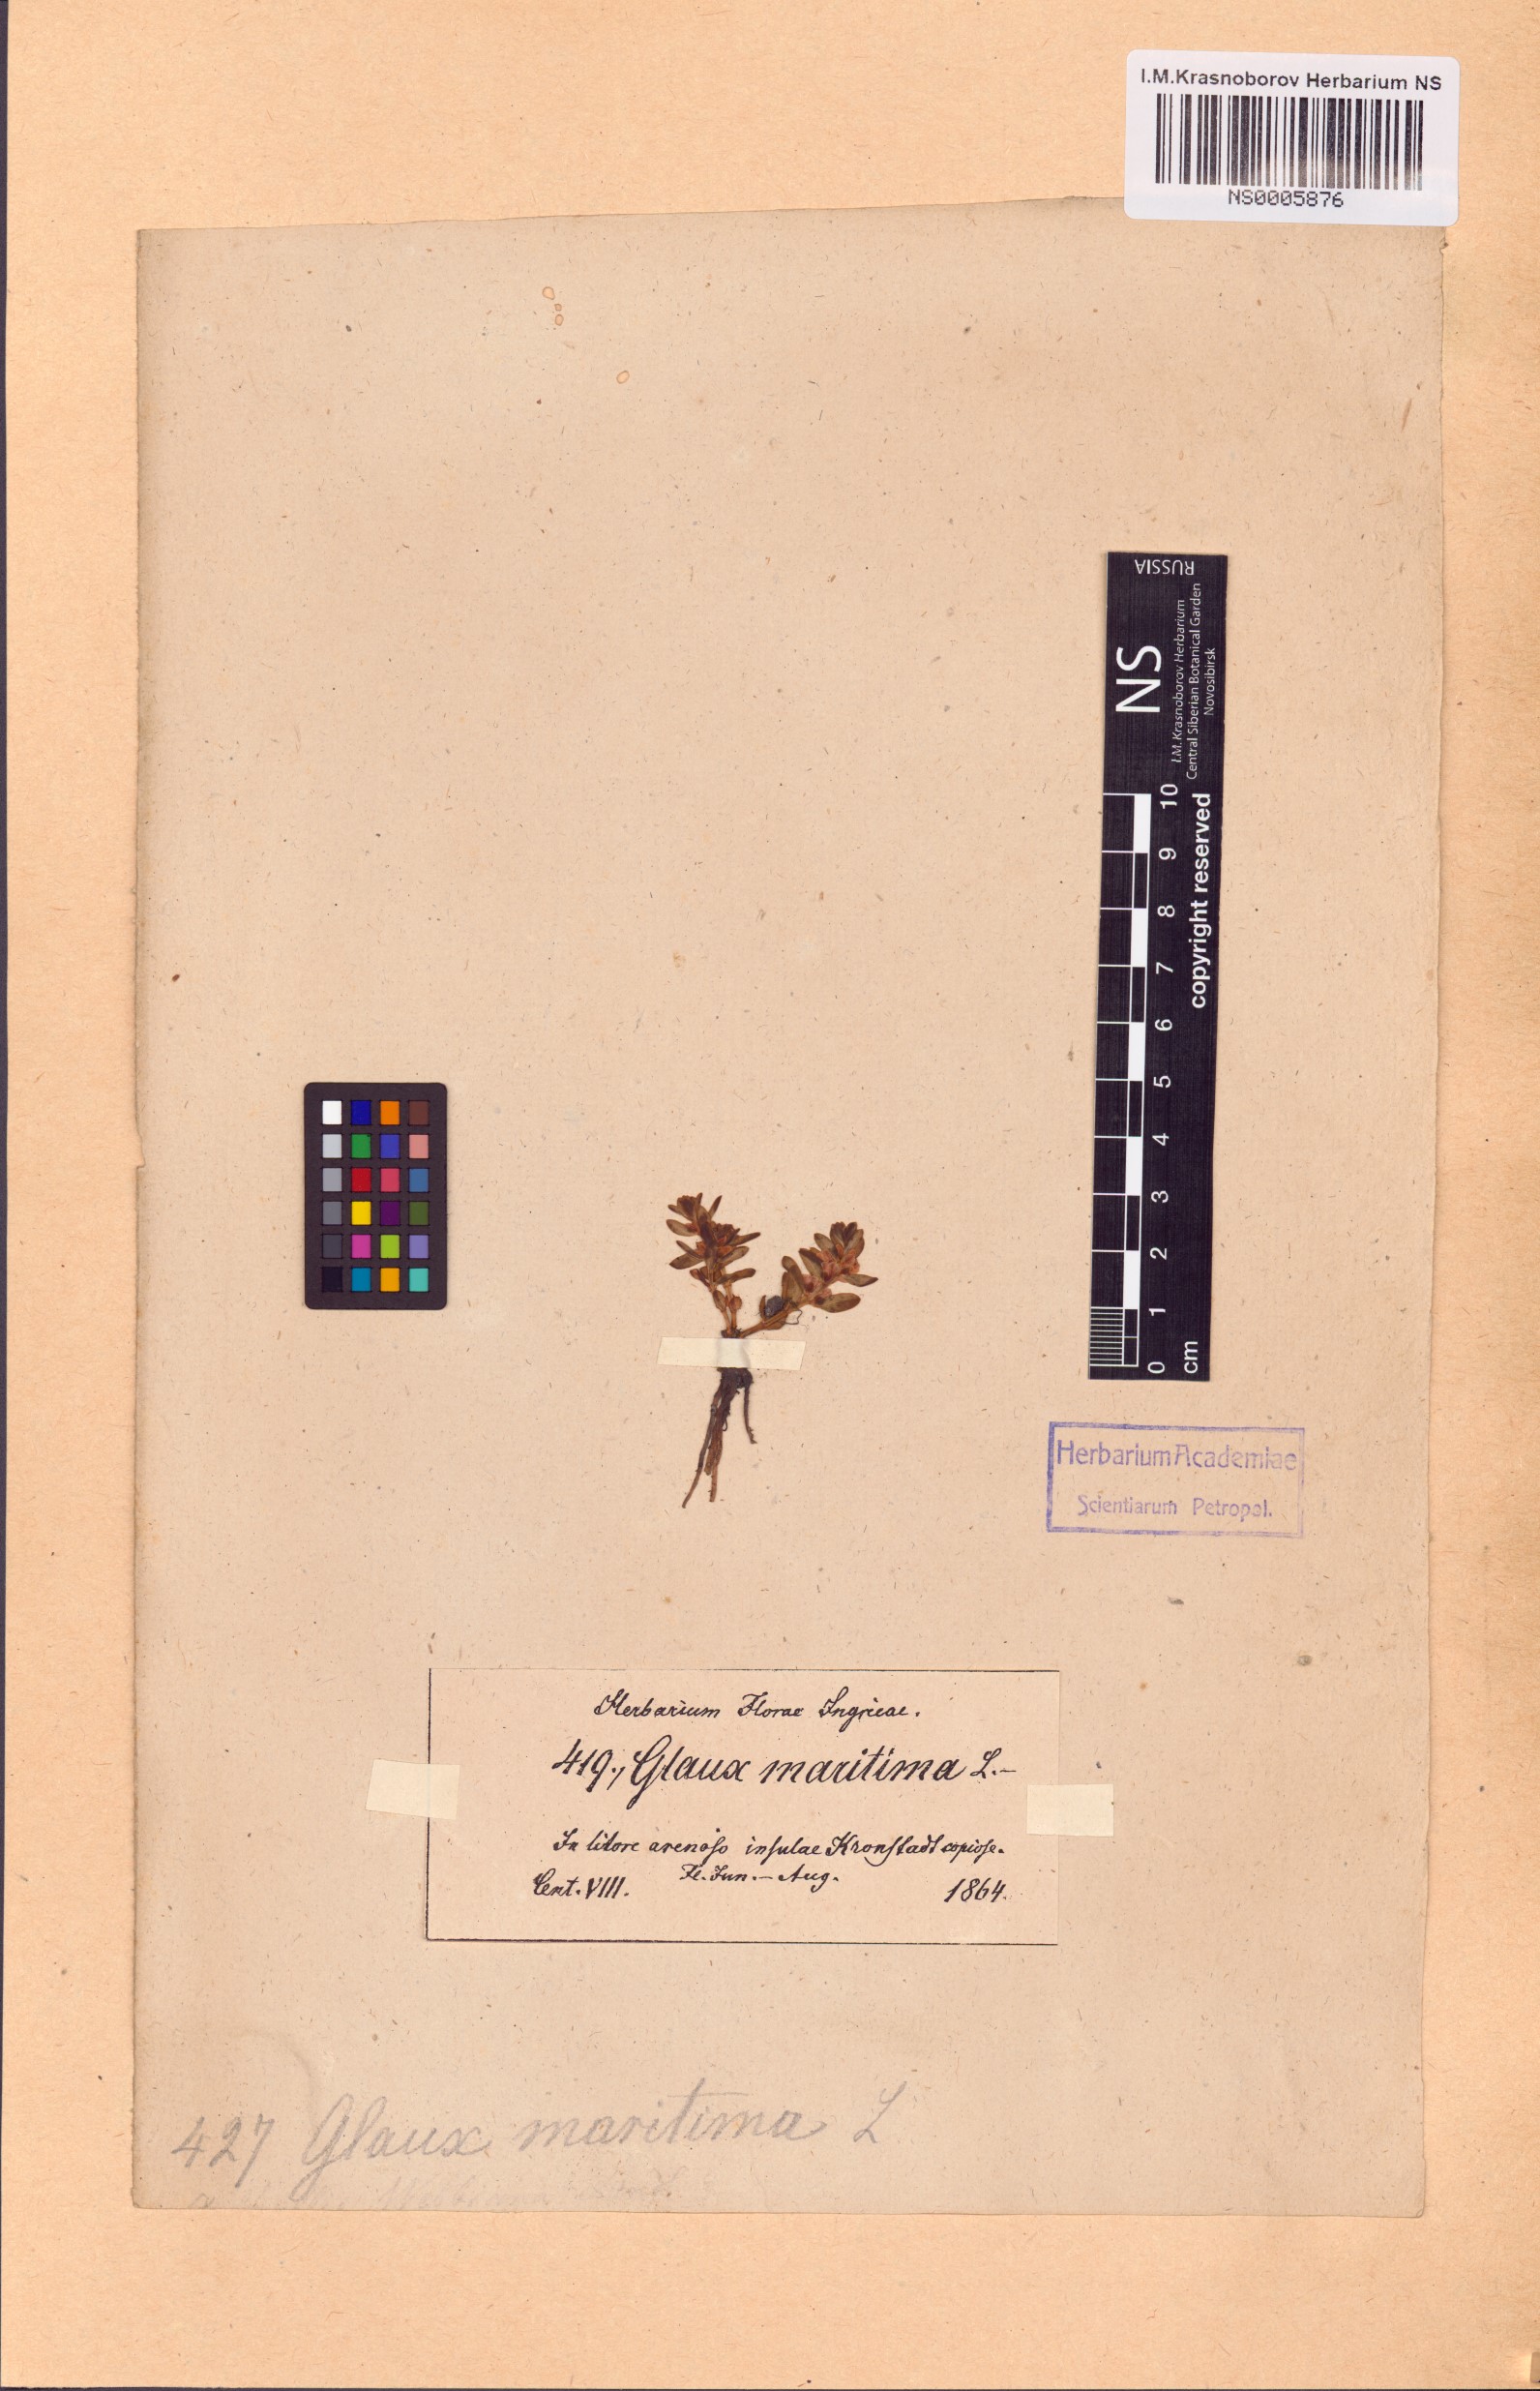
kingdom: Plantae
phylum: Tracheophyta
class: Magnoliopsida
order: Ericales
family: Primulaceae
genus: Lysimachia
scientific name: Lysimachia maritima
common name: Sea milkwort
